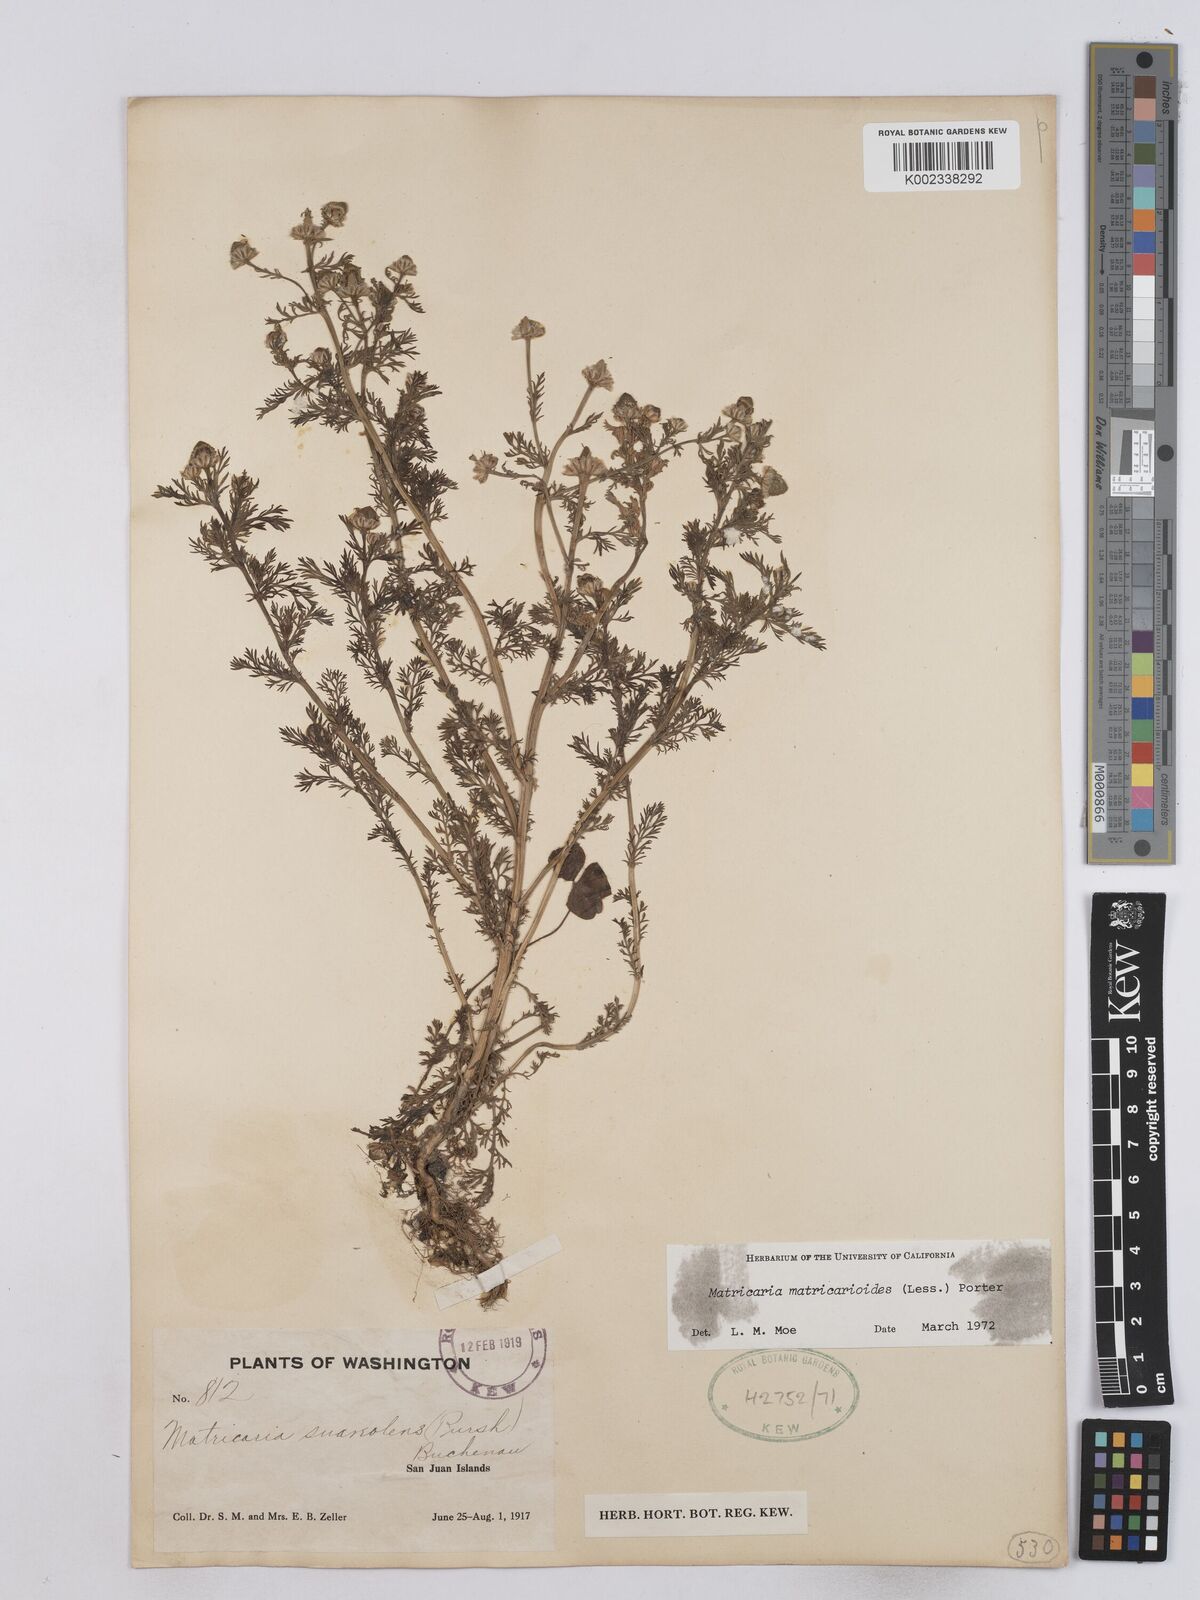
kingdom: Plantae
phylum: Tracheophyta
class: Magnoliopsida
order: Asterales
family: Asteraceae
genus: Matricaria
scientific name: Matricaria discoidea
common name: Disc mayweed
